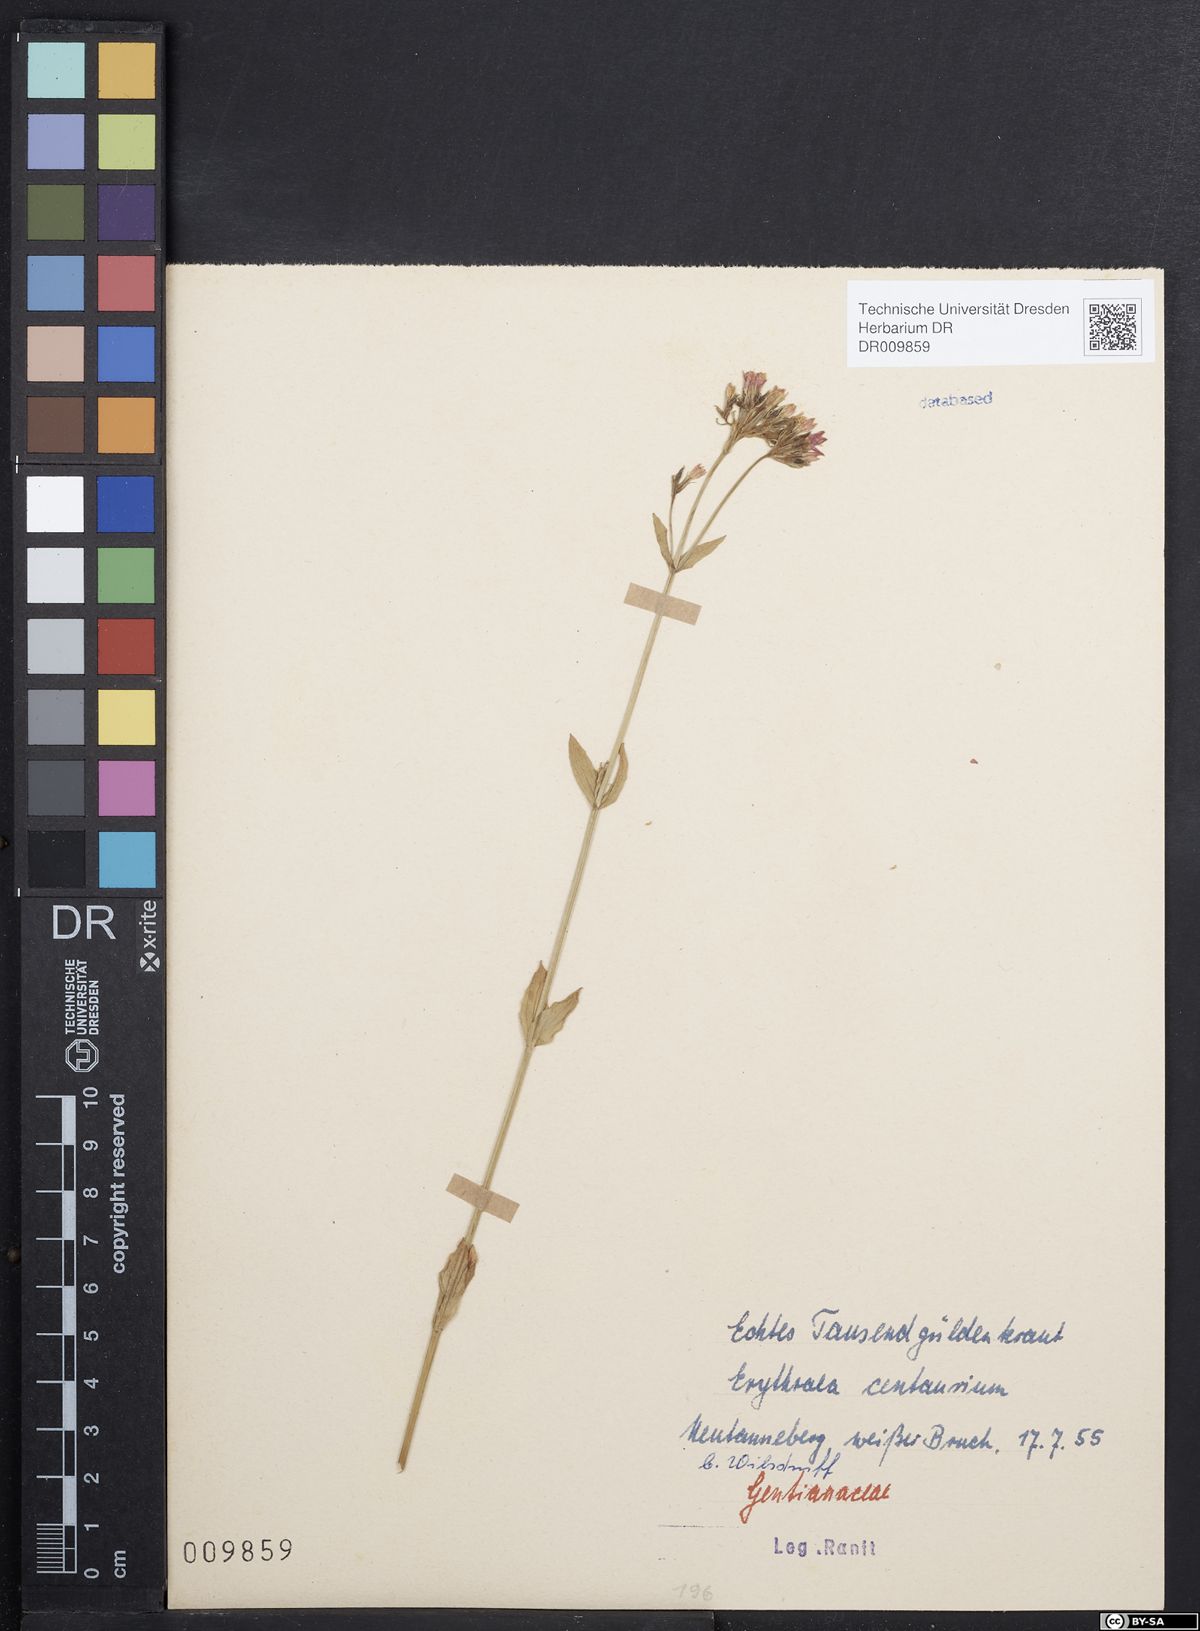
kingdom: Plantae
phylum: Tracheophyta
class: Magnoliopsida
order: Gentianales
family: Gentianaceae
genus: Centaurium
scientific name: Centaurium erythraea
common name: Common centaury
